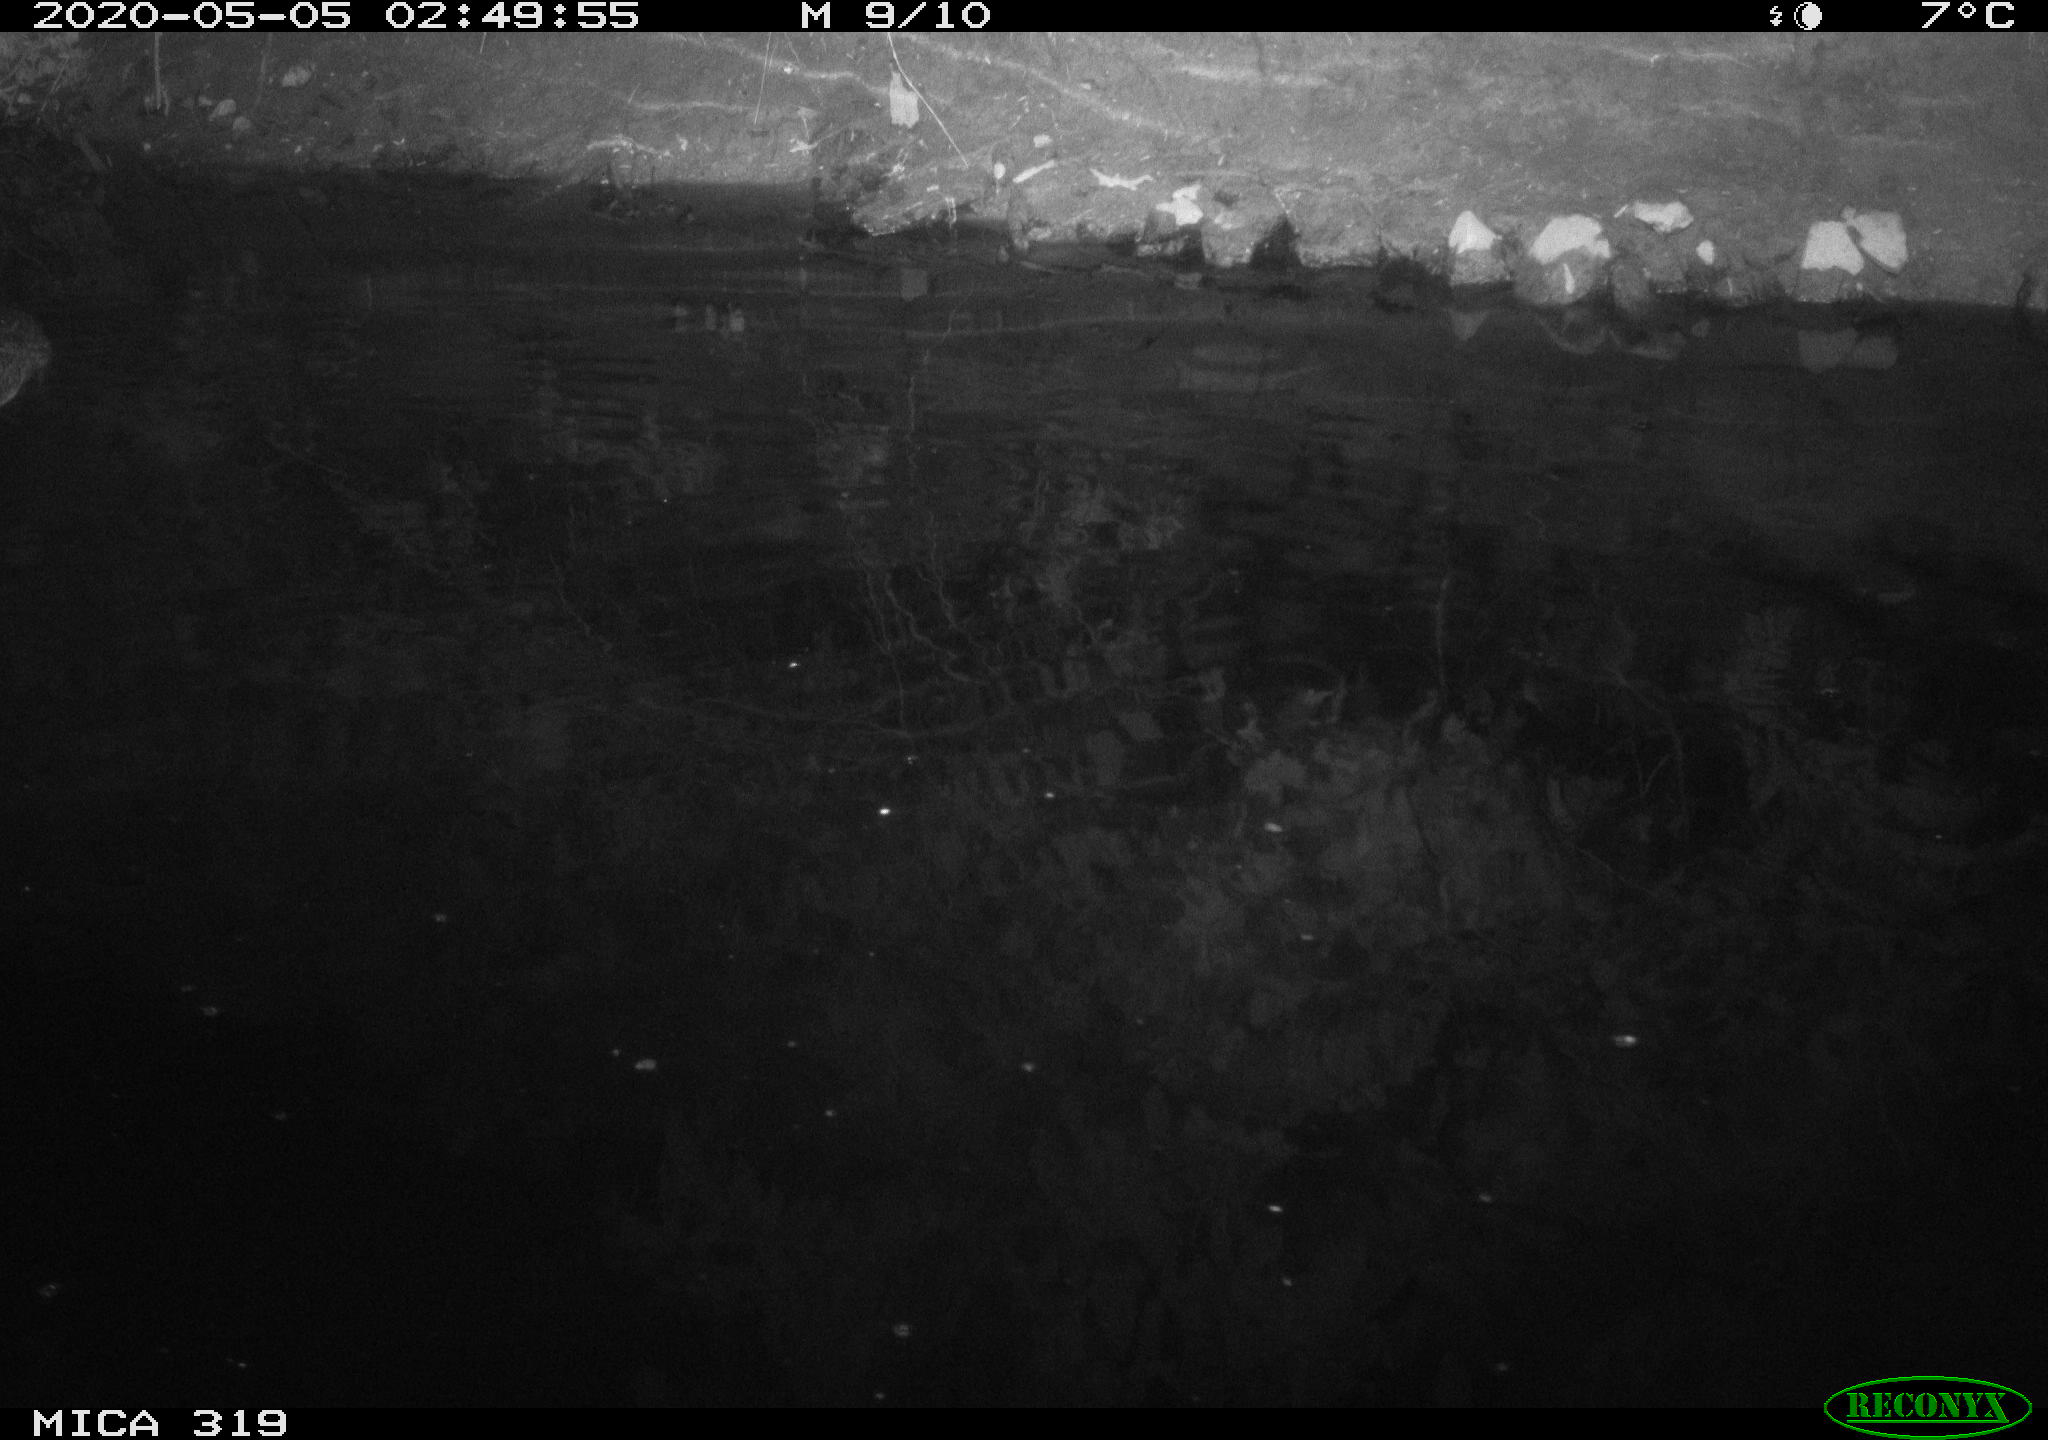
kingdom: Animalia
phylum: Chordata
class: Aves
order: Anseriformes
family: Anatidae
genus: Anas
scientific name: Anas platyrhynchos
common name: Mallard
